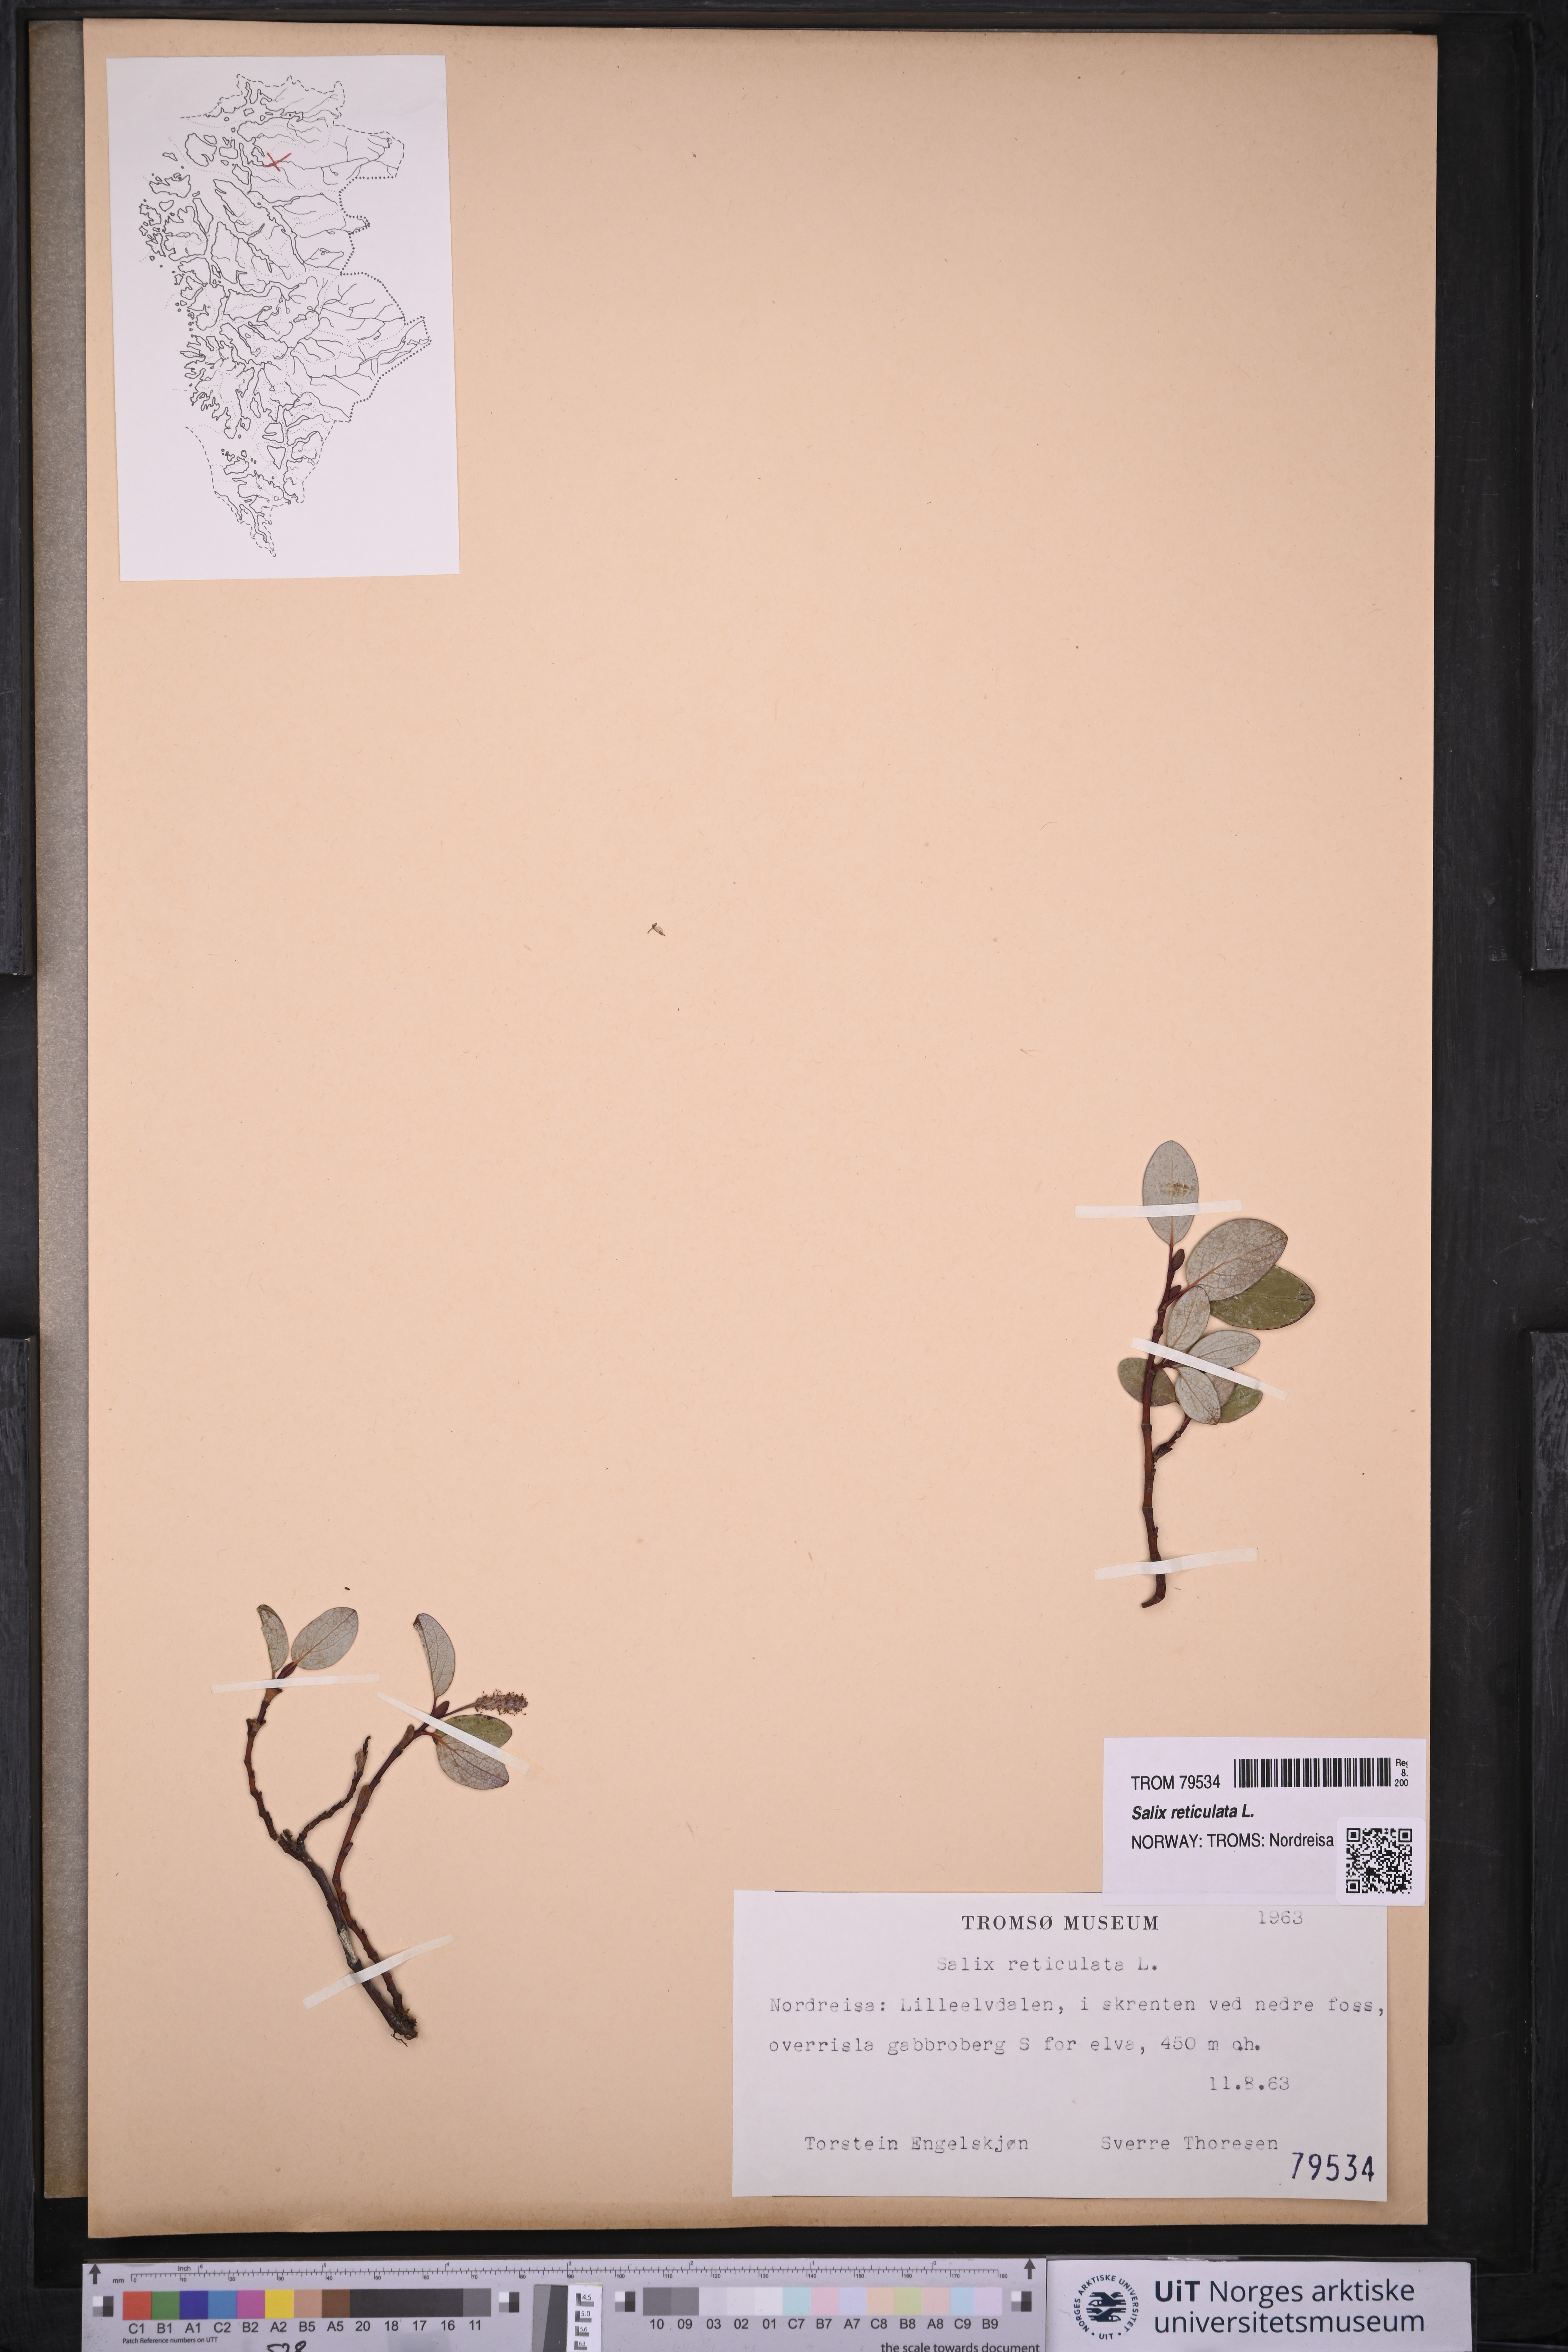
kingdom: Plantae
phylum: Tracheophyta
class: Magnoliopsida
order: Malpighiales
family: Salicaceae
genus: Salix
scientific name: Salix reticulata
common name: Net-leaved willow
